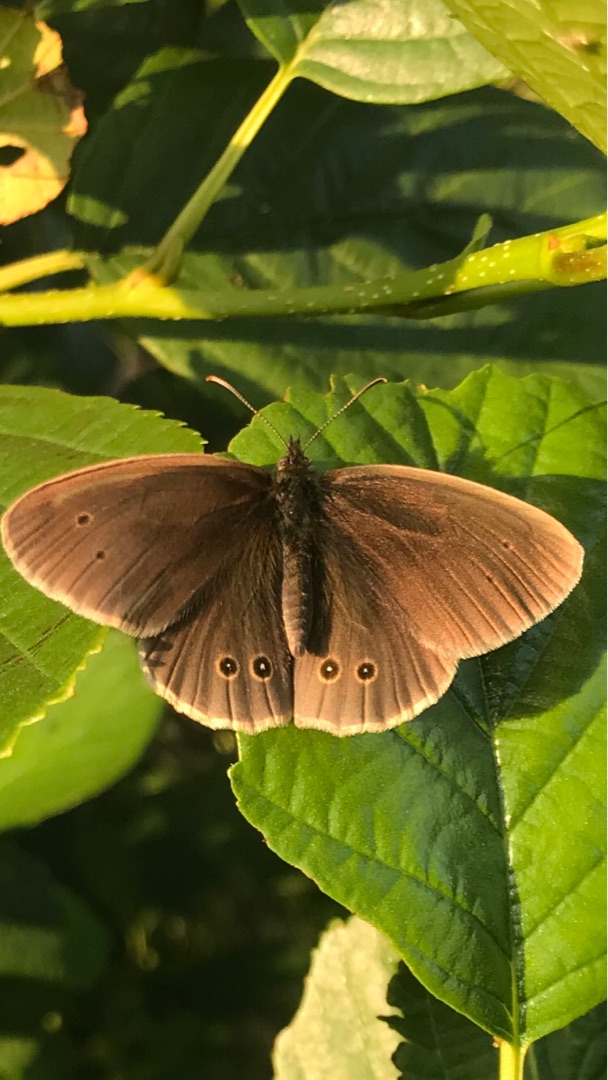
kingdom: Animalia
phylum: Arthropoda
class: Insecta
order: Lepidoptera
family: Nymphalidae
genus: Aphantopus
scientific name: Aphantopus hyperantus
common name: Engrandøje
